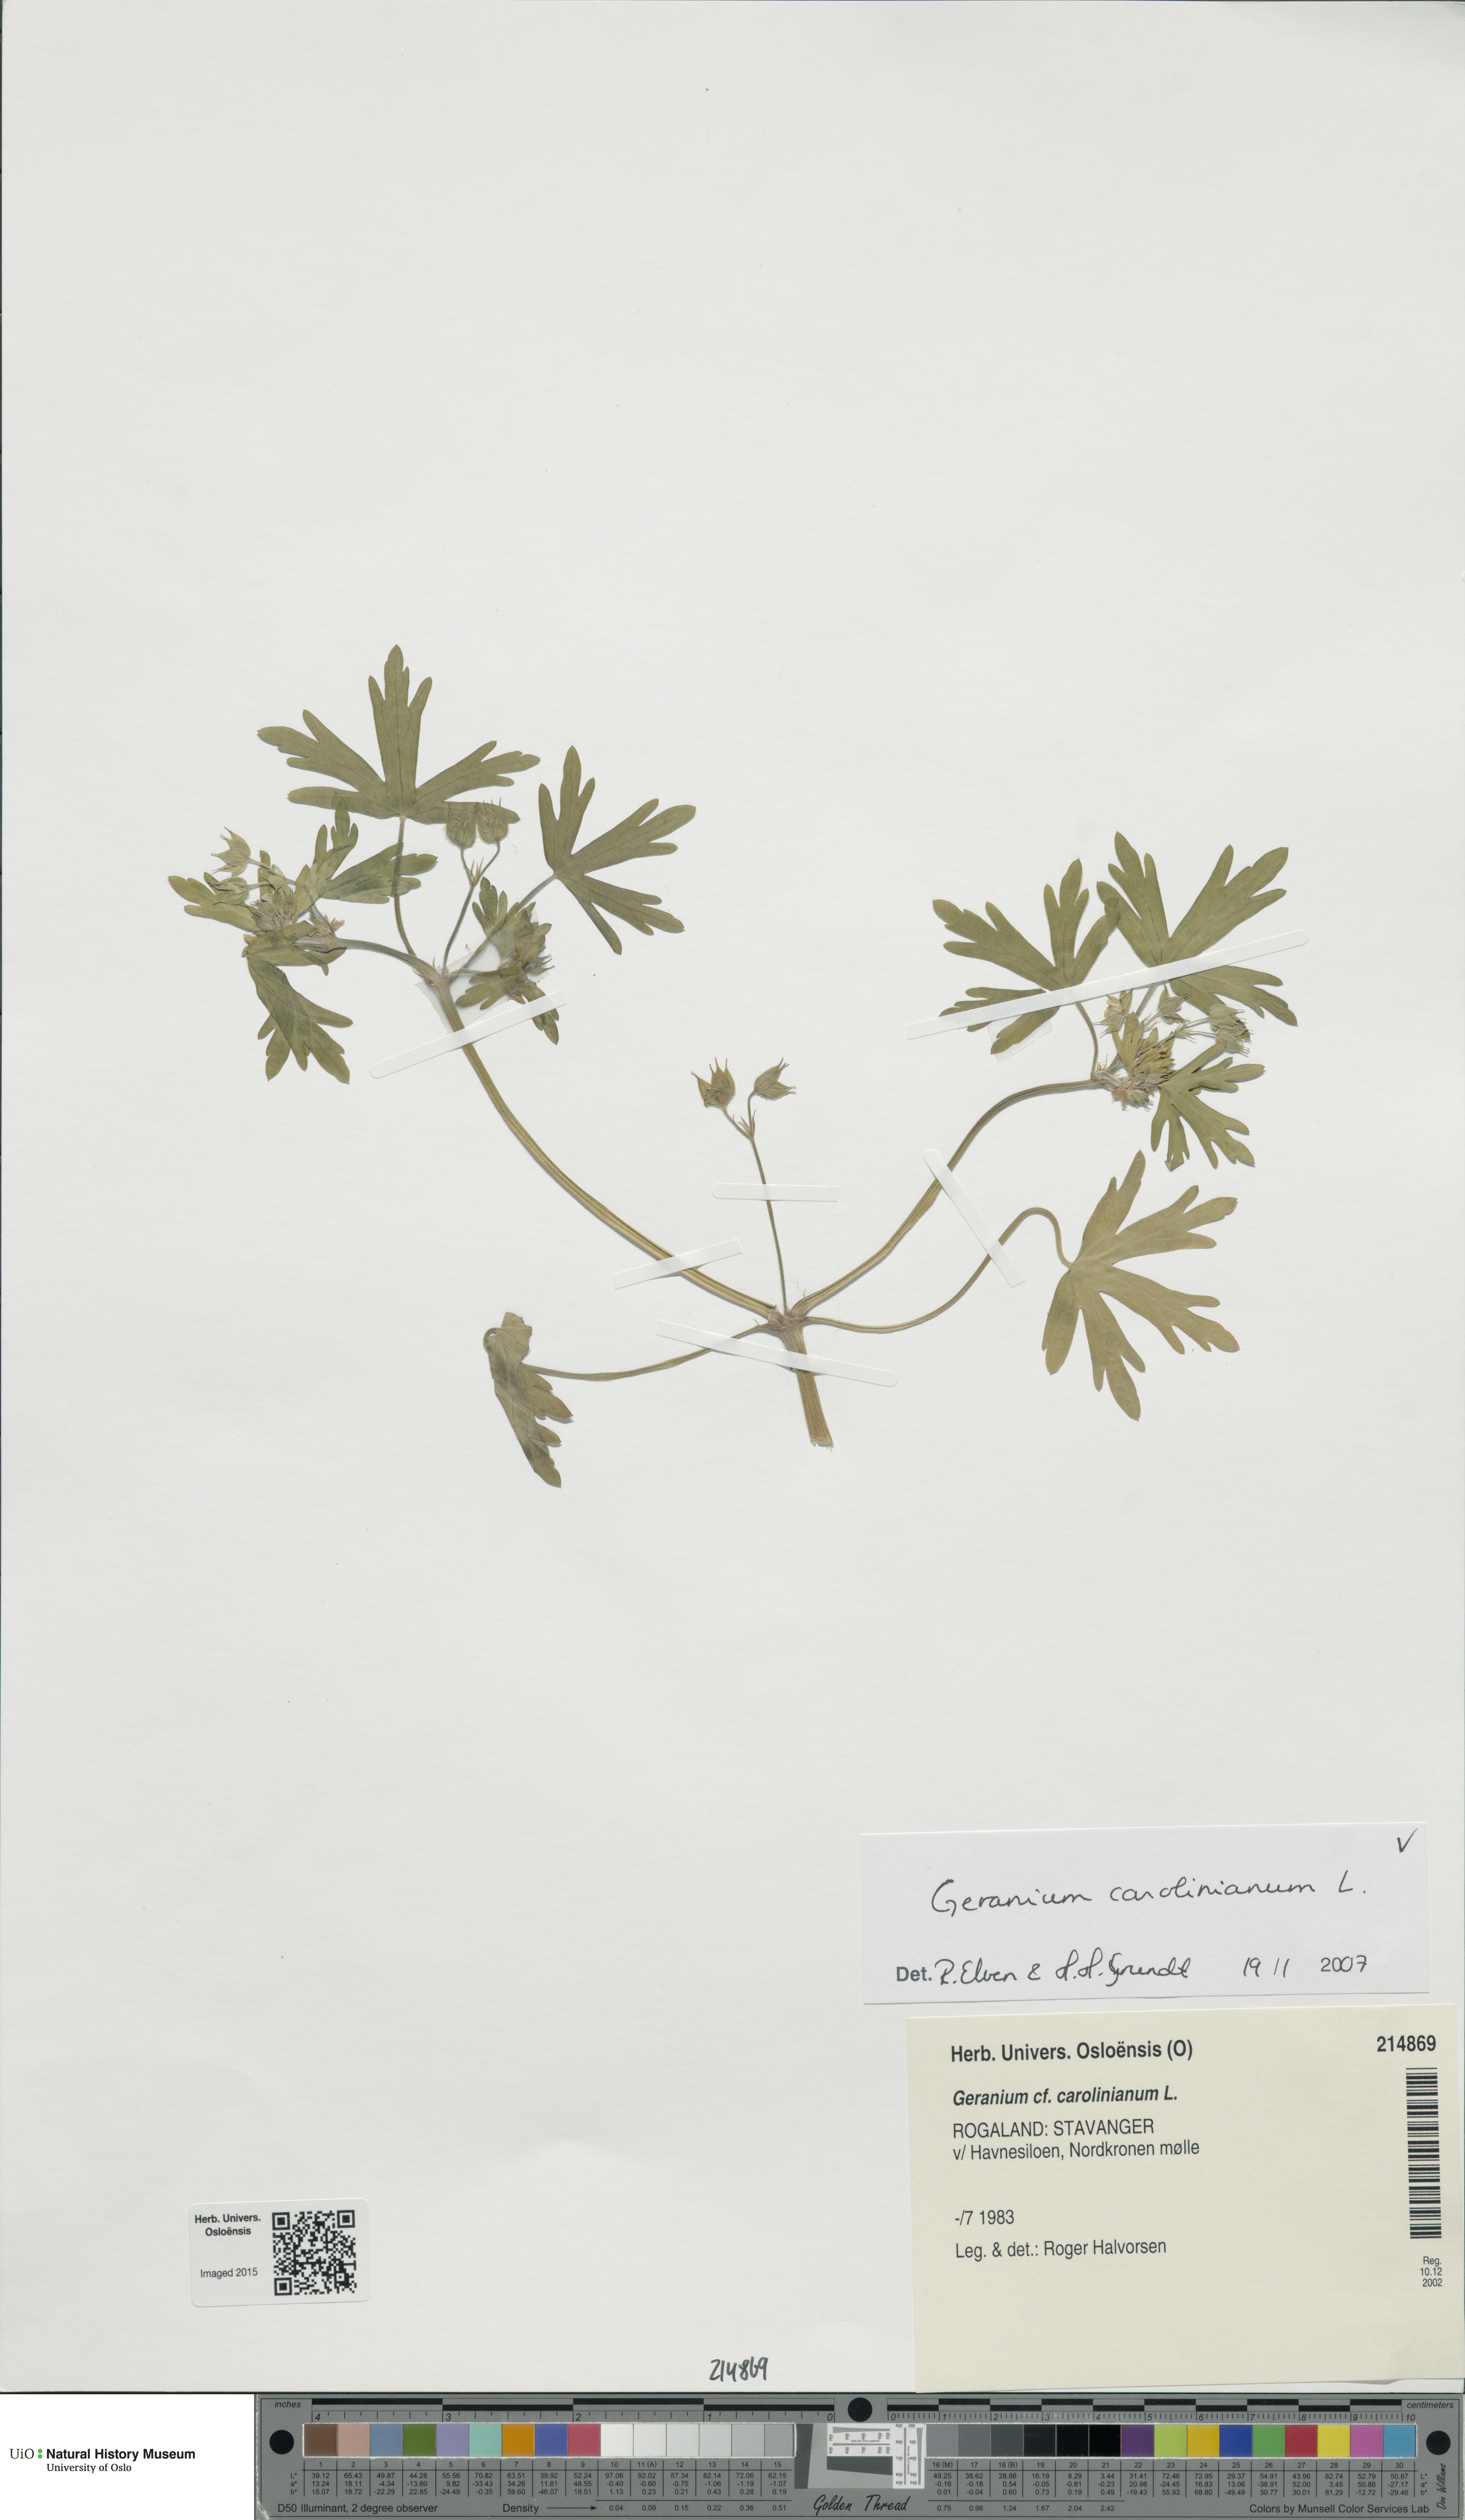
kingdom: Plantae
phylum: Tracheophyta
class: Magnoliopsida
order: Geraniales
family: Geraniaceae
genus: Geranium
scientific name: Geranium carolinianum
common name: Carolina crane's-bill
